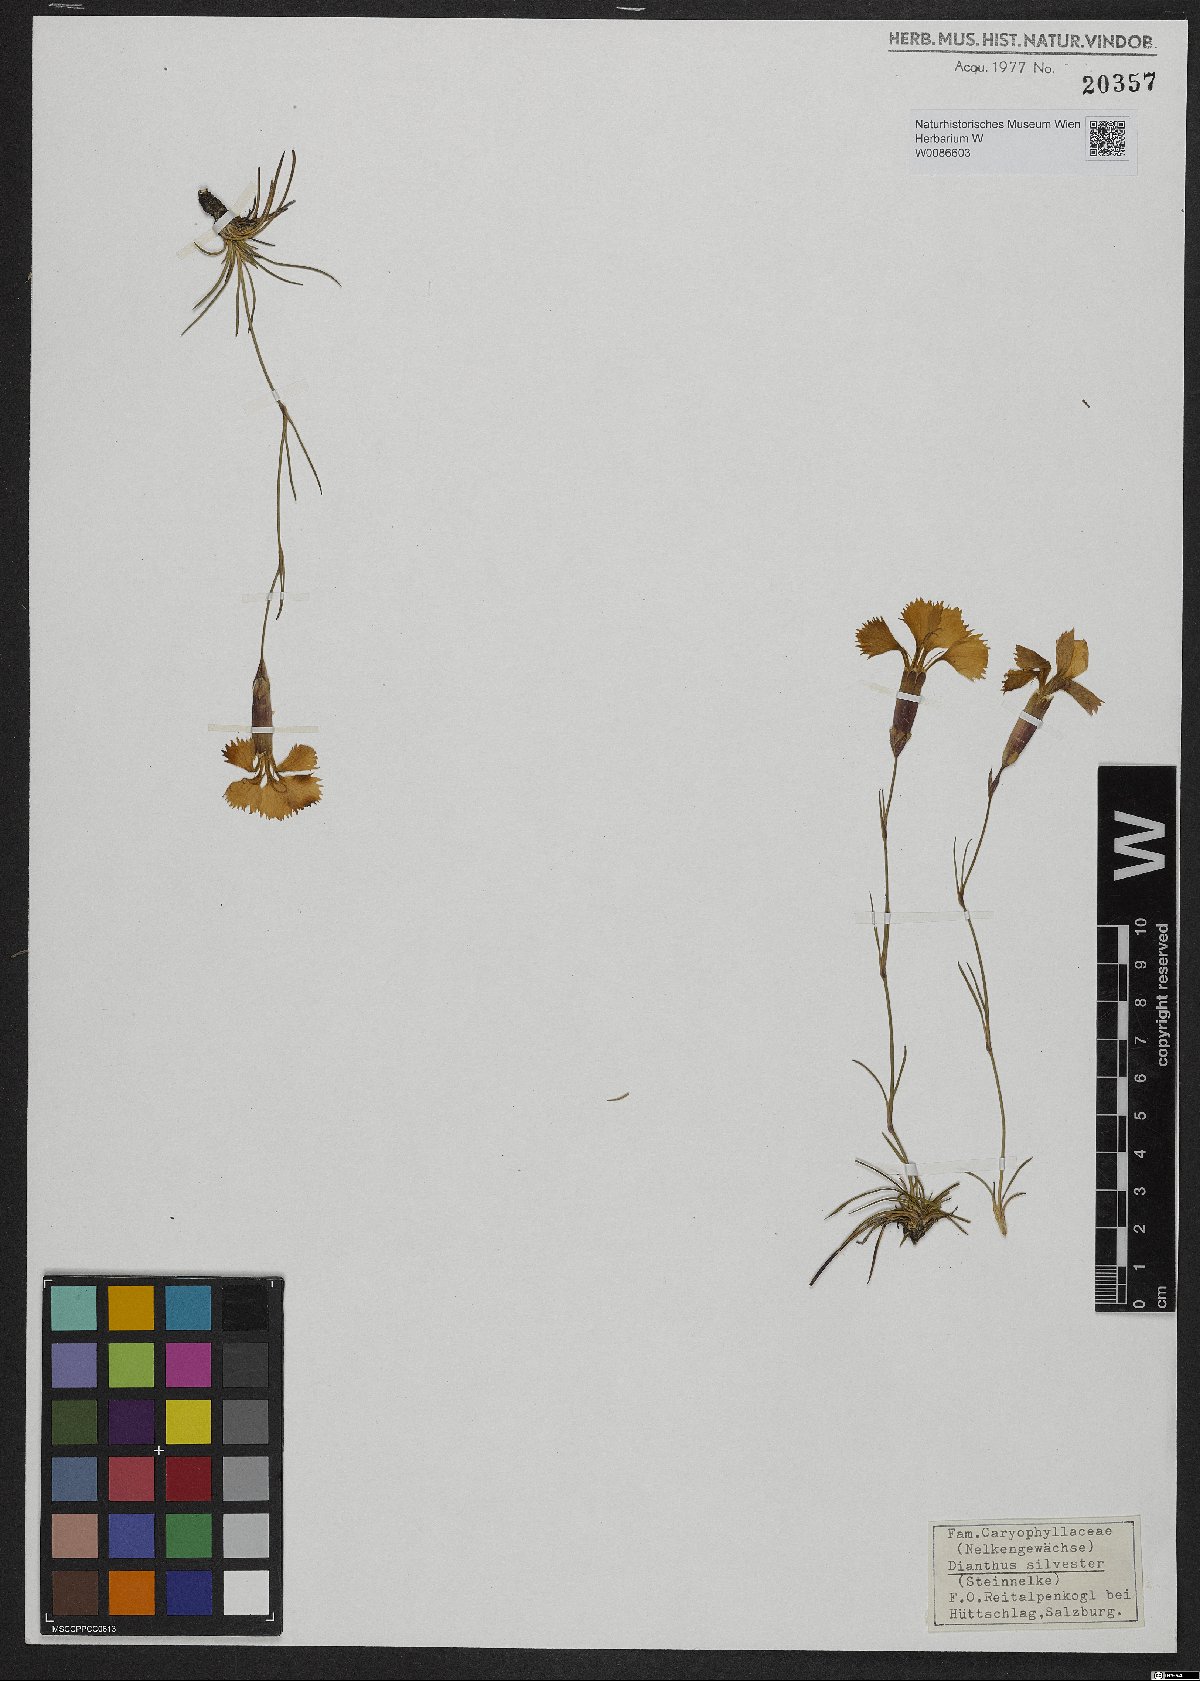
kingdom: Plantae
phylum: Tracheophyta
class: Magnoliopsida
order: Caryophyllales
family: Caryophyllaceae
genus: Dianthus
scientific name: Dianthus sylvestris
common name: Wood pink
